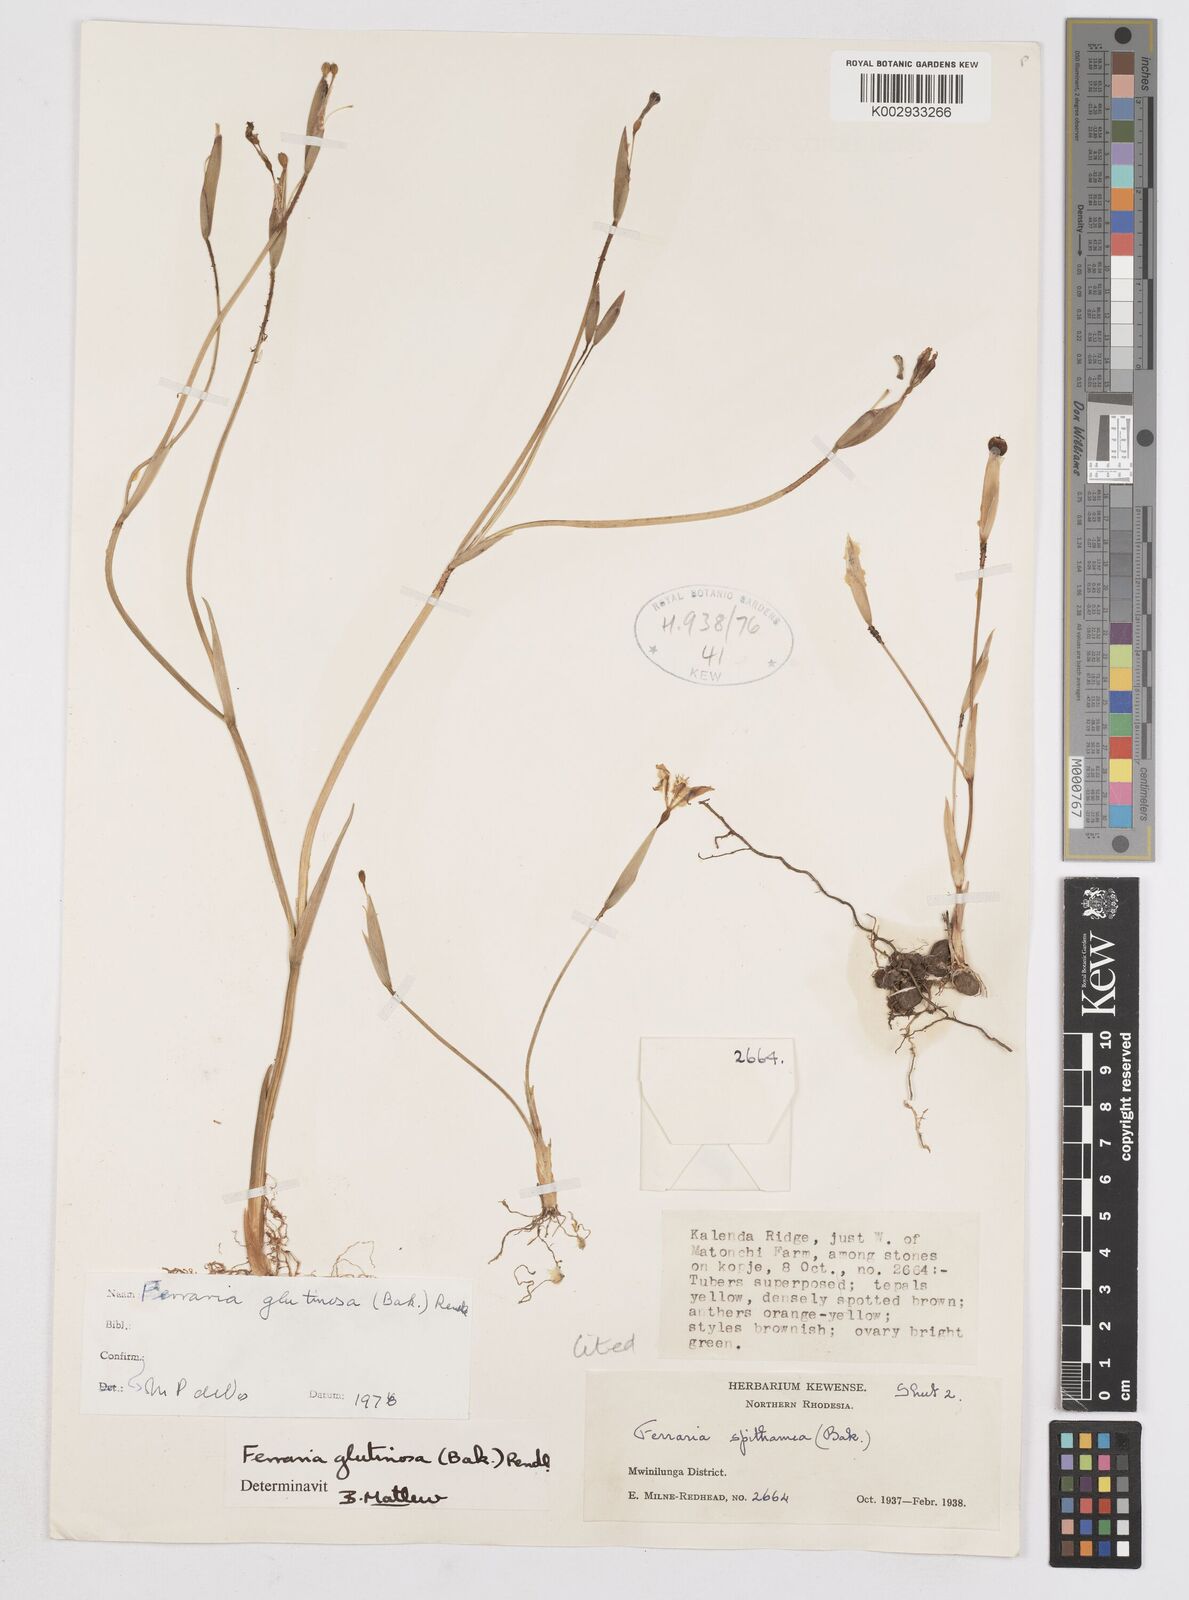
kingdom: Plantae
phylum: Tracheophyta
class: Liliopsida
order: Asparagales
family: Iridaceae
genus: Ferraria
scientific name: Ferraria welwitschii
